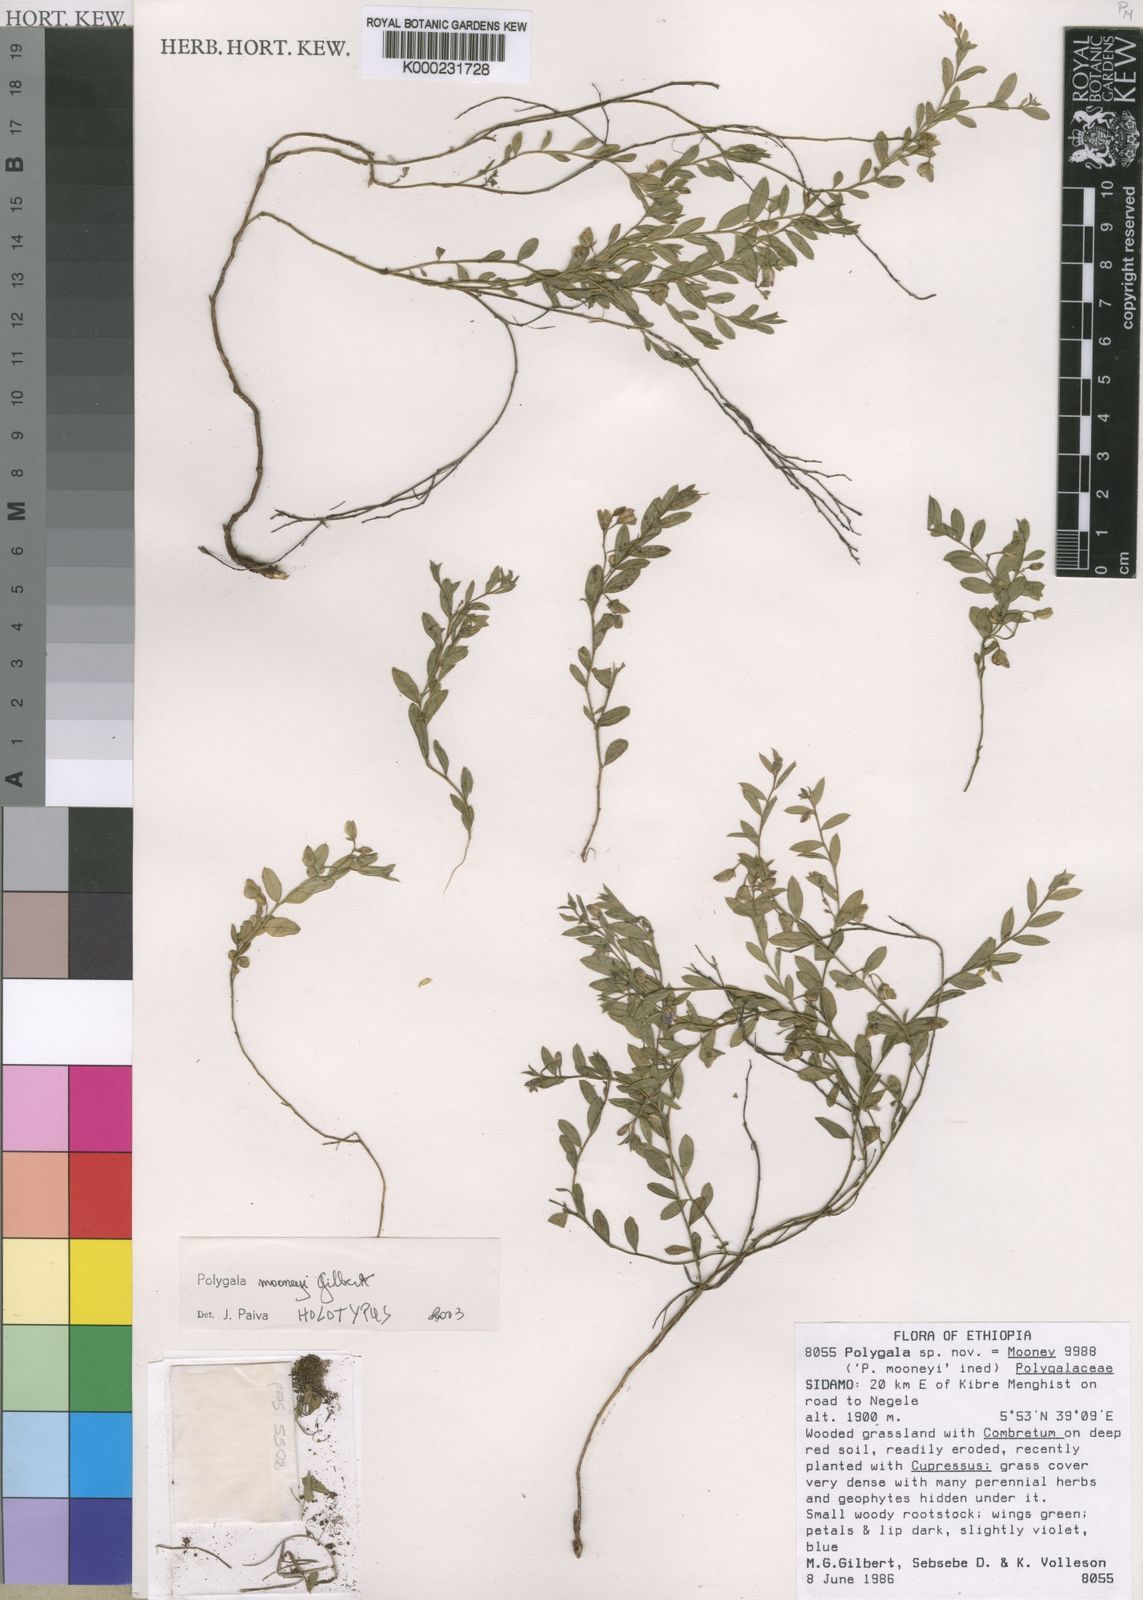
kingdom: Plantae
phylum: Tracheophyta
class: Magnoliopsida
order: Fabales
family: Polygalaceae
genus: Polygala
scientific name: Polygala mooneyi
